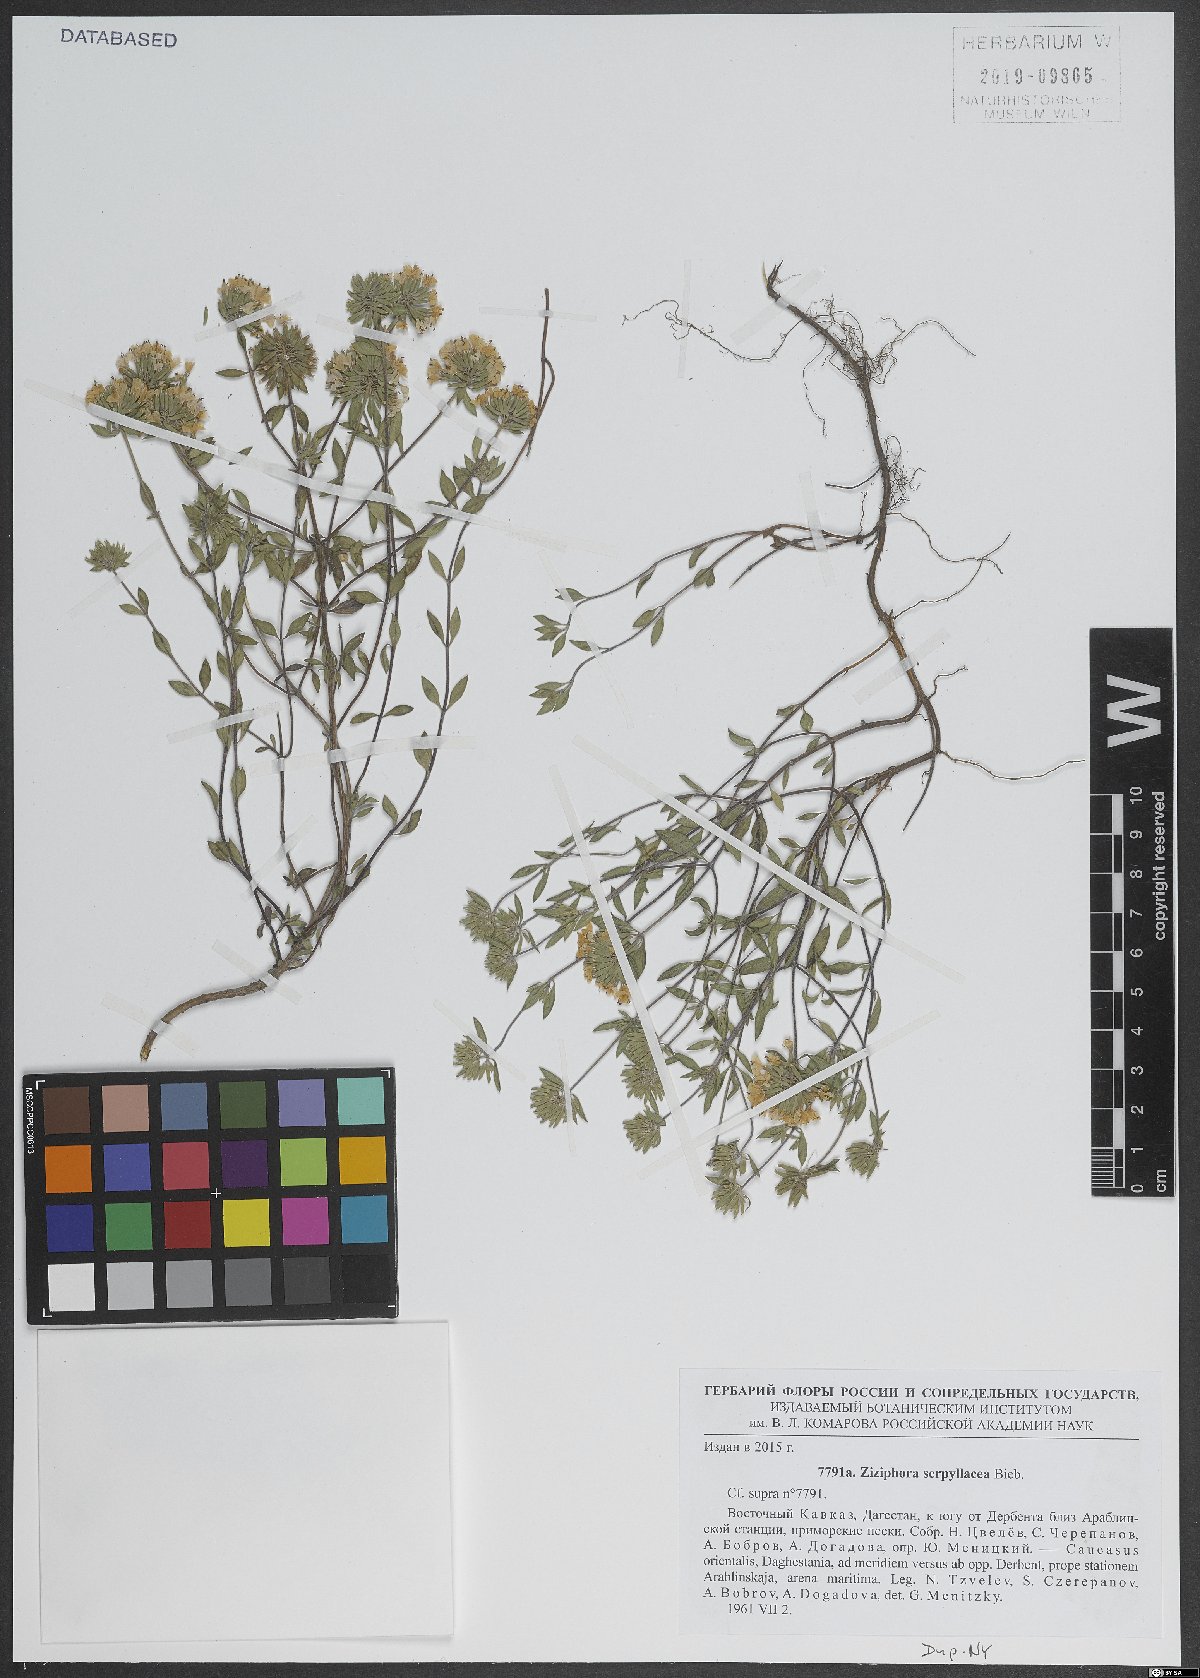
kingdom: Plantae
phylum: Tracheophyta
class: Magnoliopsida
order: Lamiales
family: Lamiaceae
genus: Ziziphora
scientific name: Ziziphora clinopodioides
